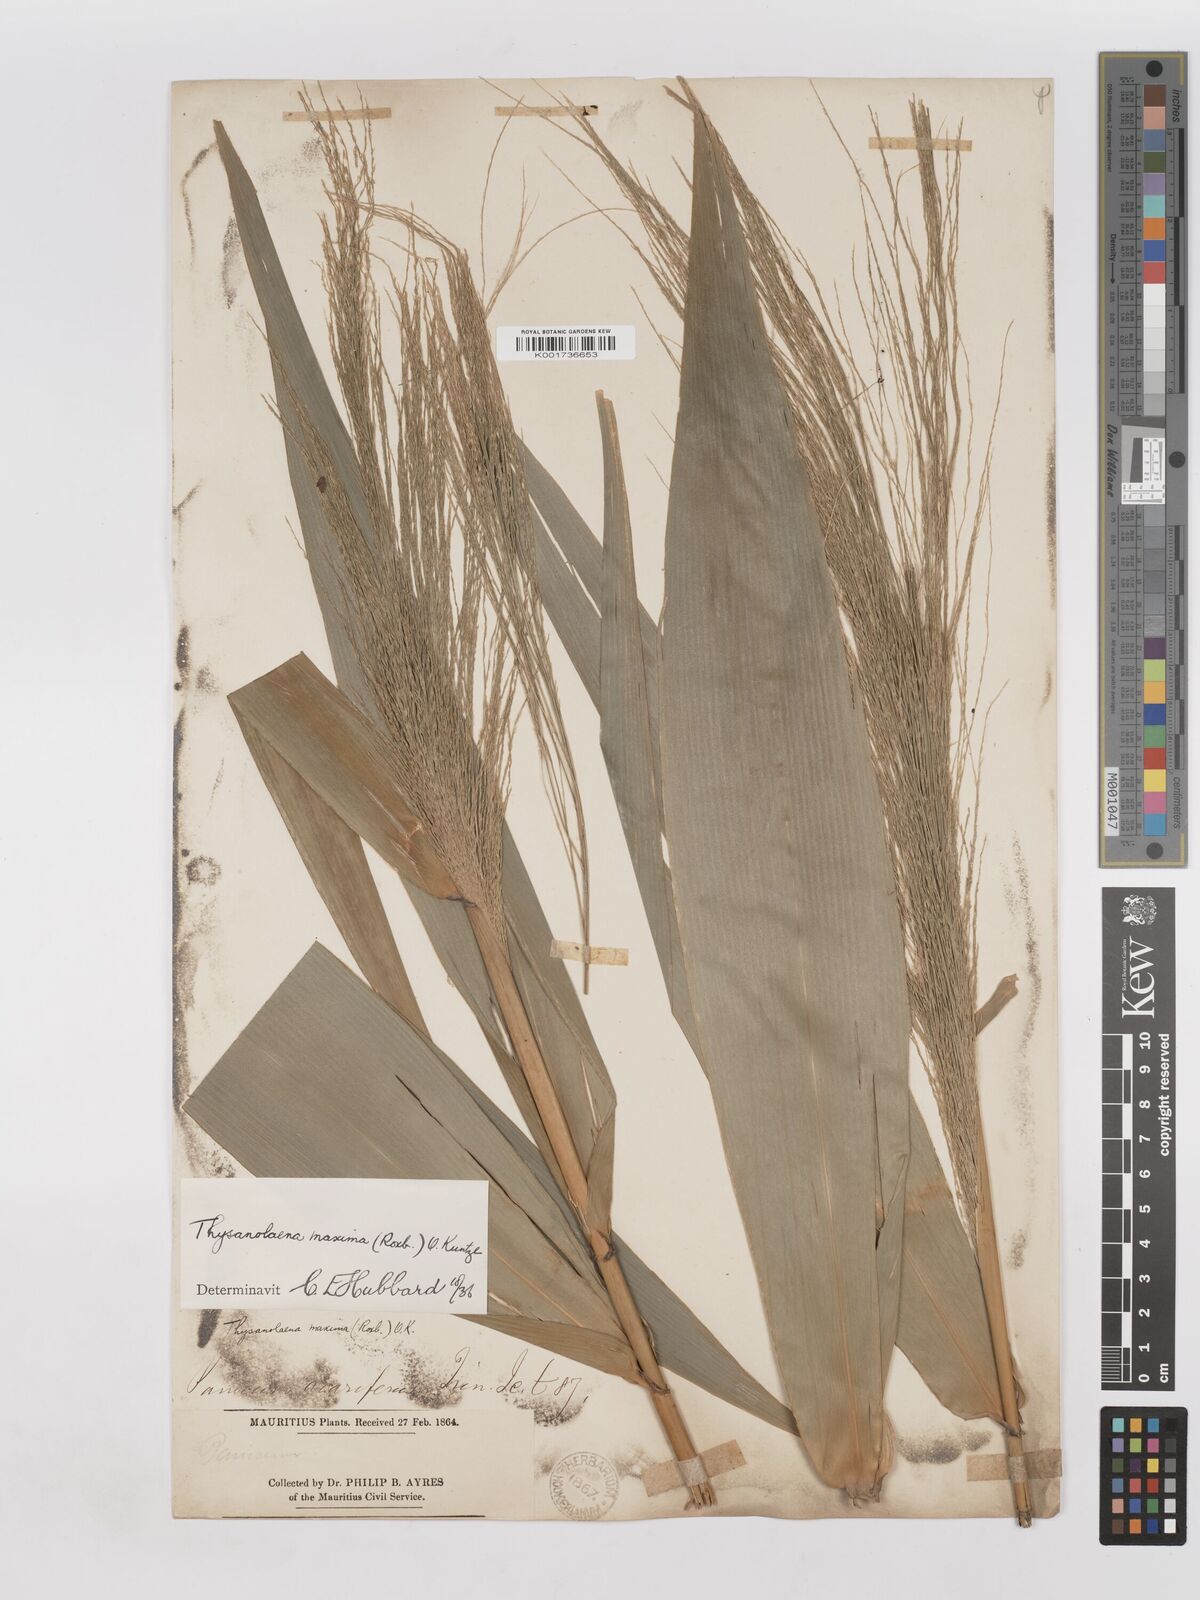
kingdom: Plantae
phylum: Tracheophyta
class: Liliopsida
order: Poales
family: Poaceae
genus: Thysanolaena
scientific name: Thysanolaena latifolia
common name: Tiger grass
